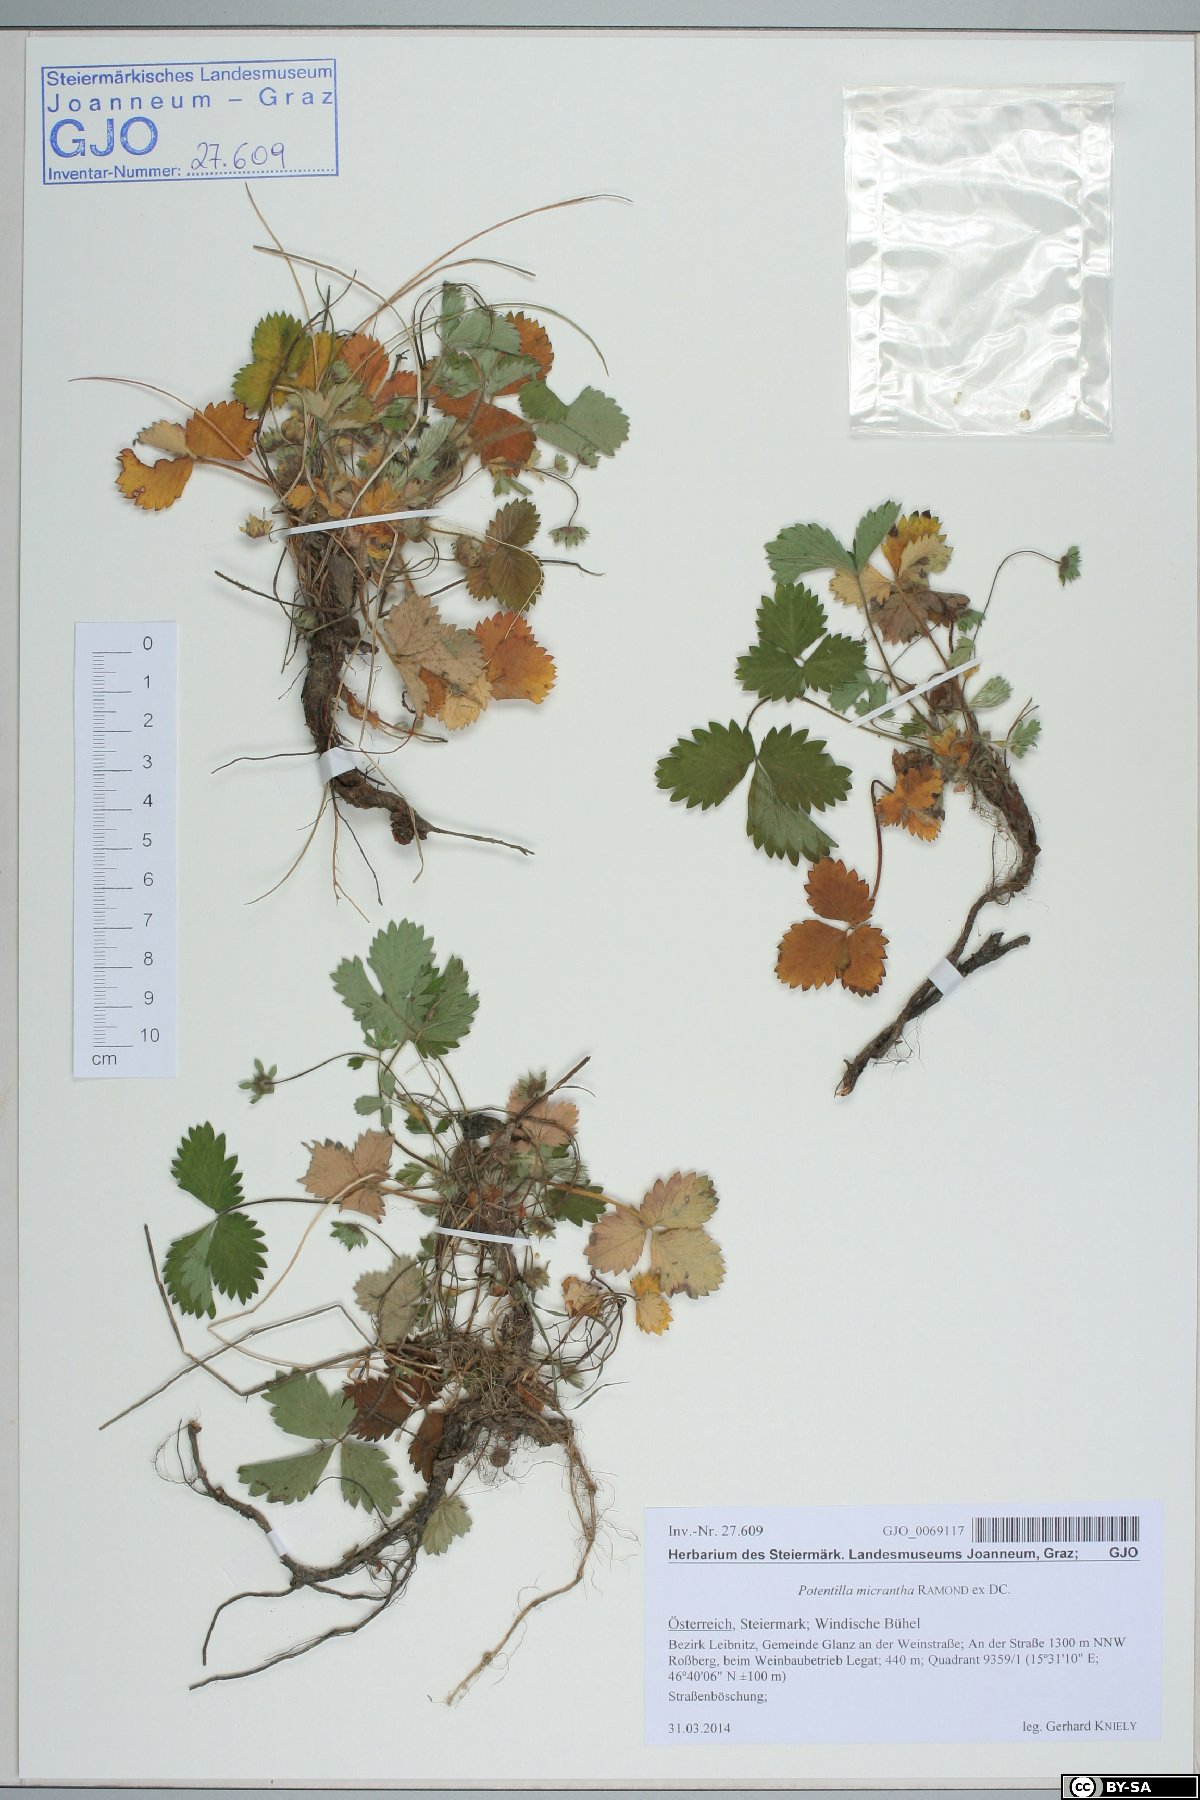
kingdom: Plantae
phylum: Tracheophyta
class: Magnoliopsida
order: Rosales
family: Rosaceae
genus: Potentilla
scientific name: Potentilla micrantha
